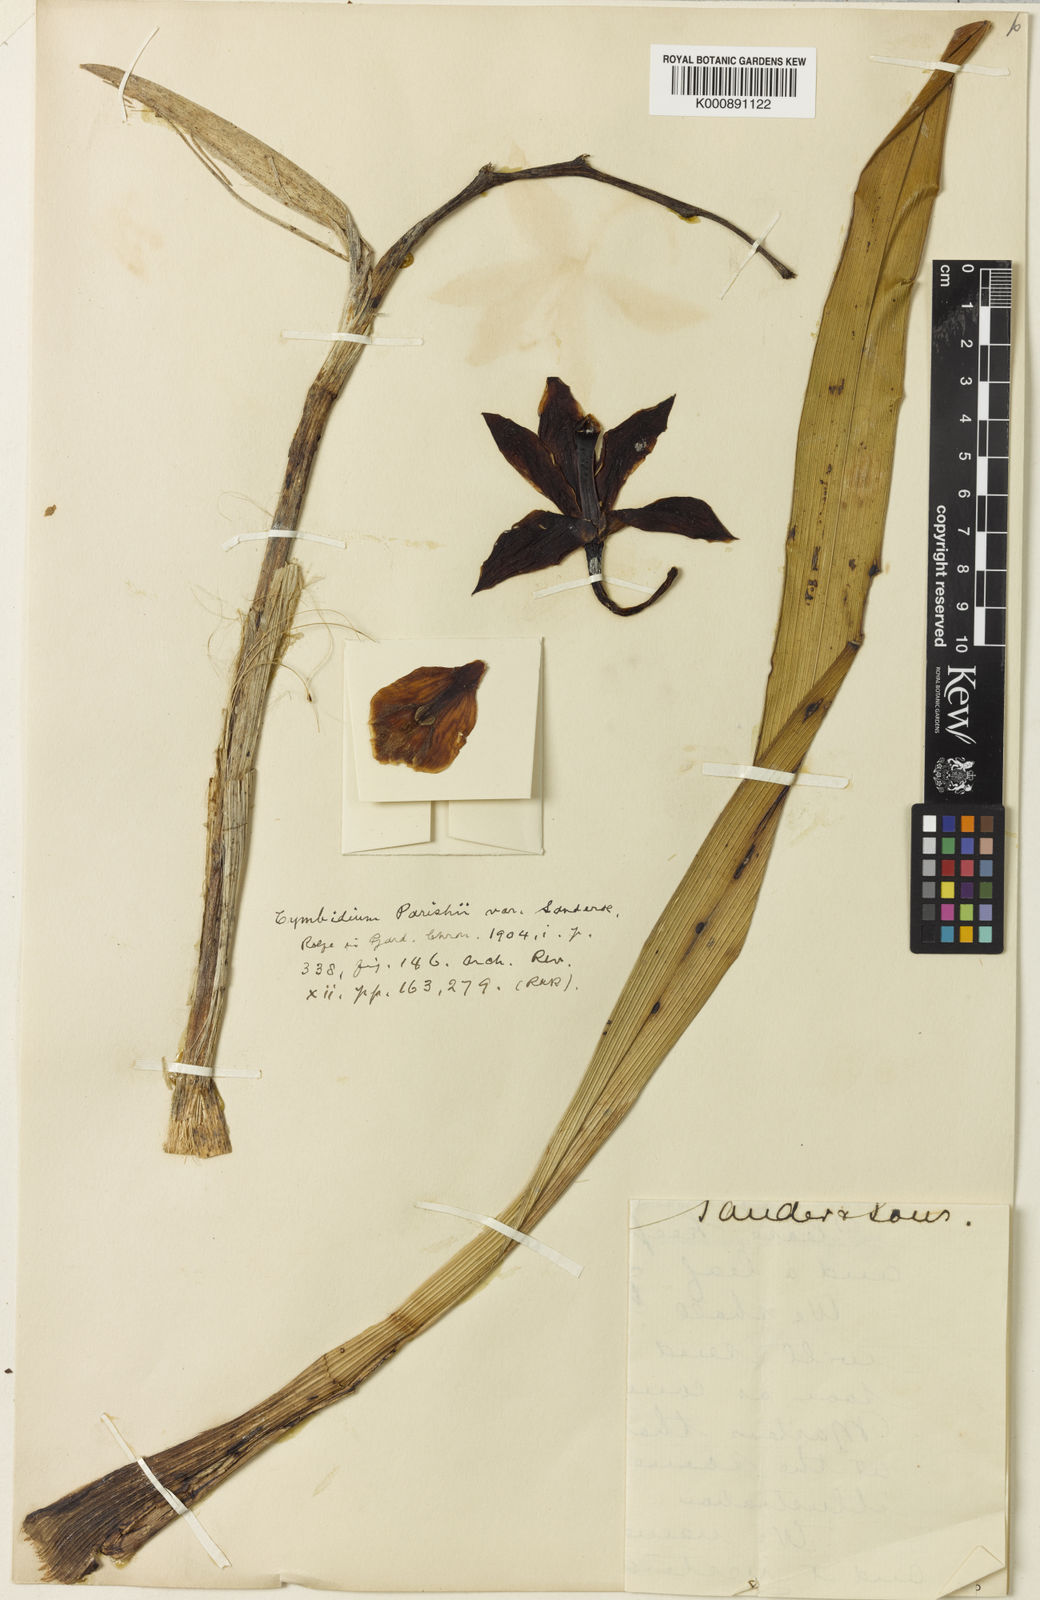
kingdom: Plantae
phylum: Tracheophyta
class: Liliopsida
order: Asparagales
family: Orchidaceae
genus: Cymbidium
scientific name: Cymbidium sanderae
